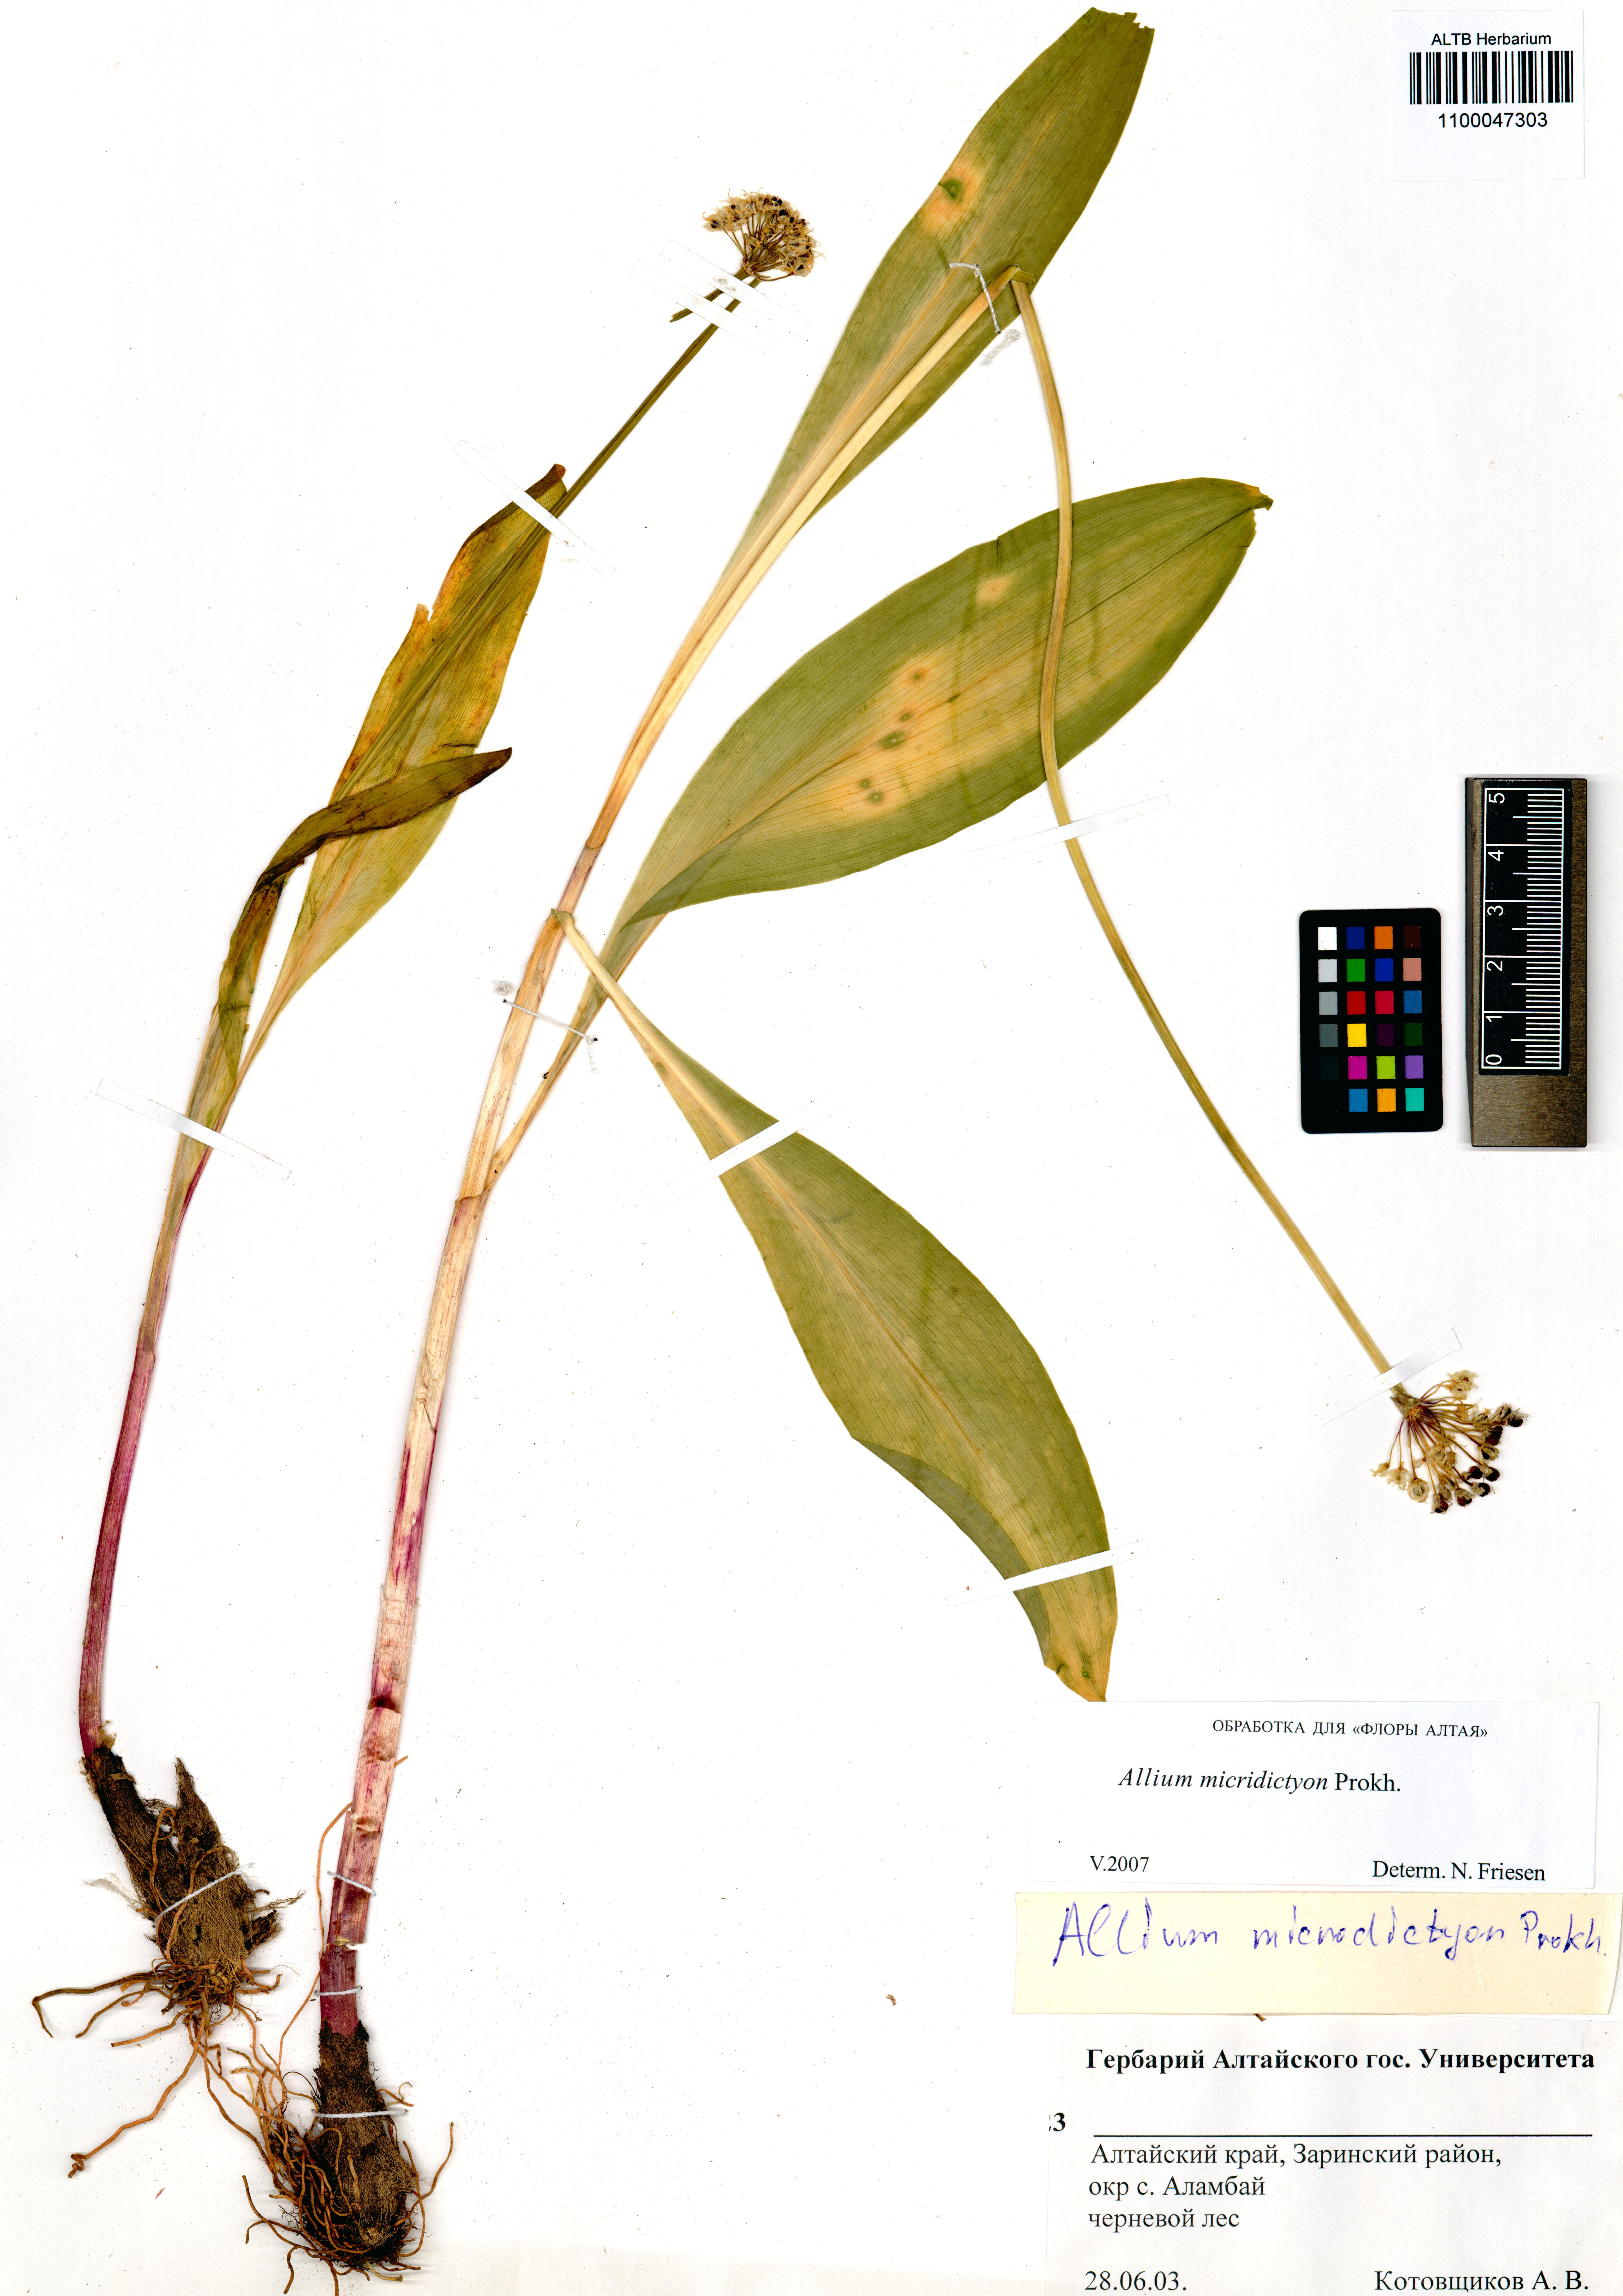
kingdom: Plantae
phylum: Tracheophyta
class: Liliopsida
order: Asparagales
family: Amaryllidaceae
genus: Allium
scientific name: Allium microdictyon
